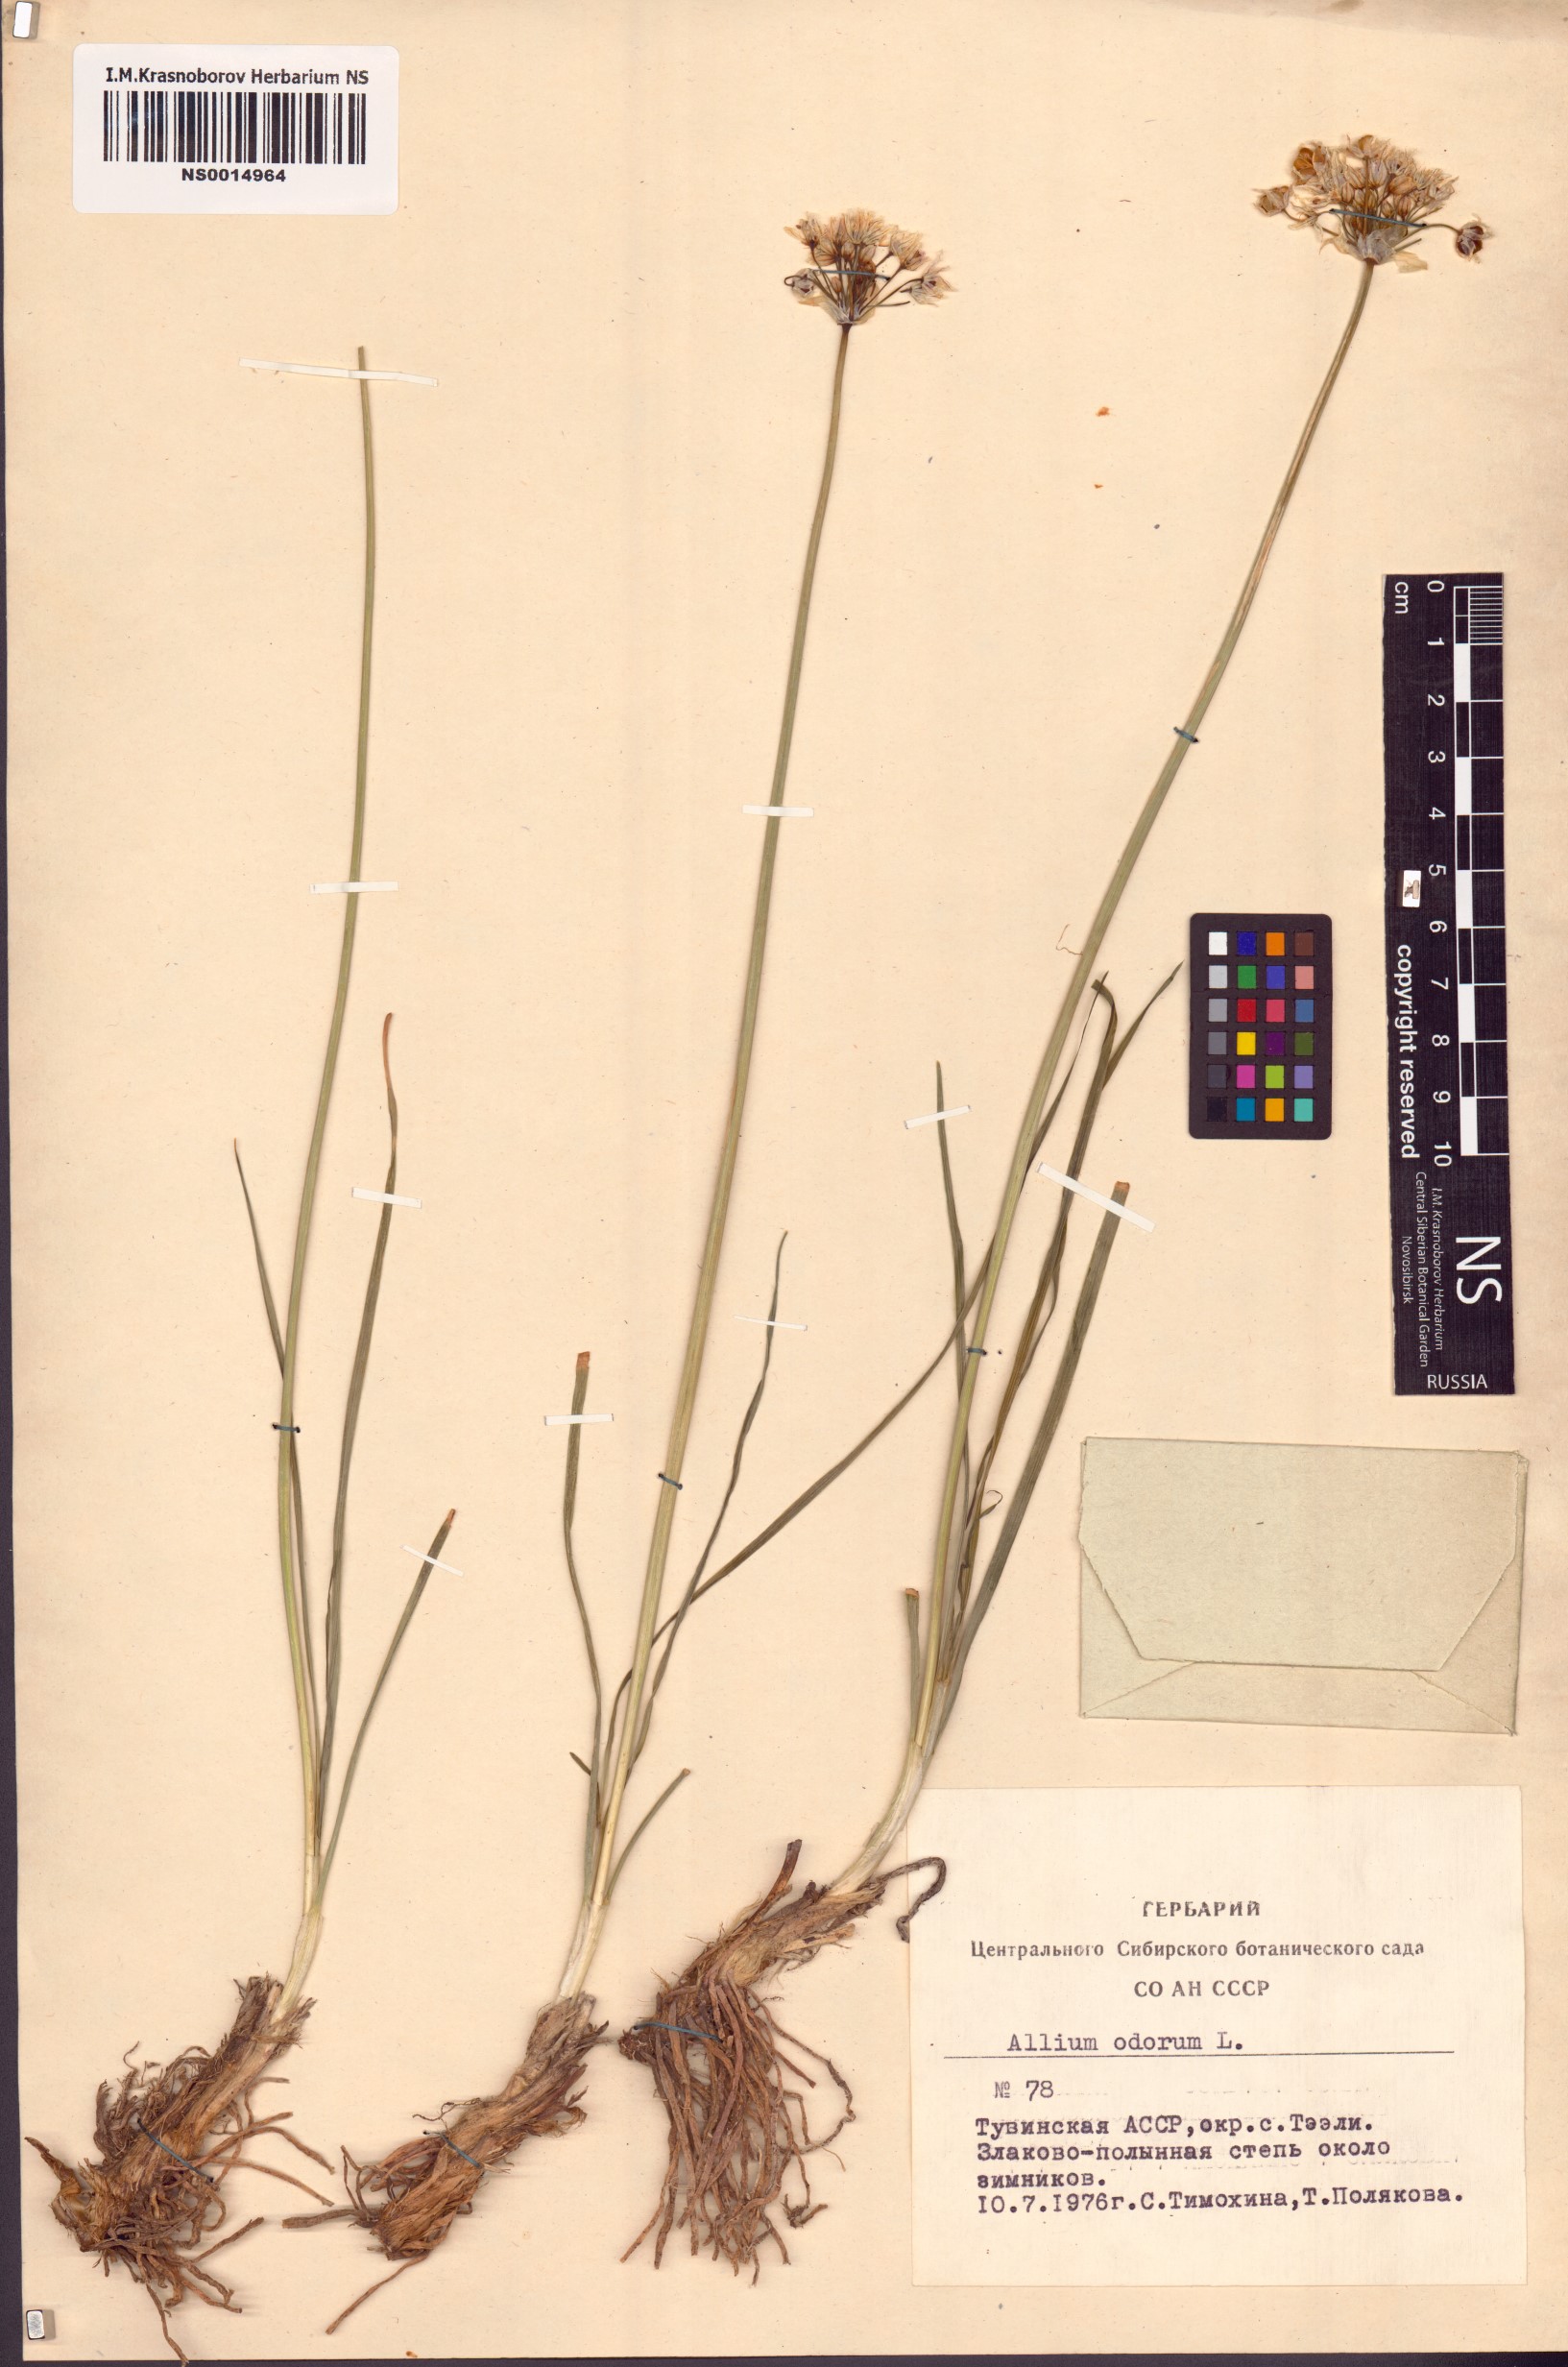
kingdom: Plantae
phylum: Tracheophyta
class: Liliopsida
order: Asparagales
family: Amaryllidaceae
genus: Allium
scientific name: Allium ramosum
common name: Fragrant garlic
